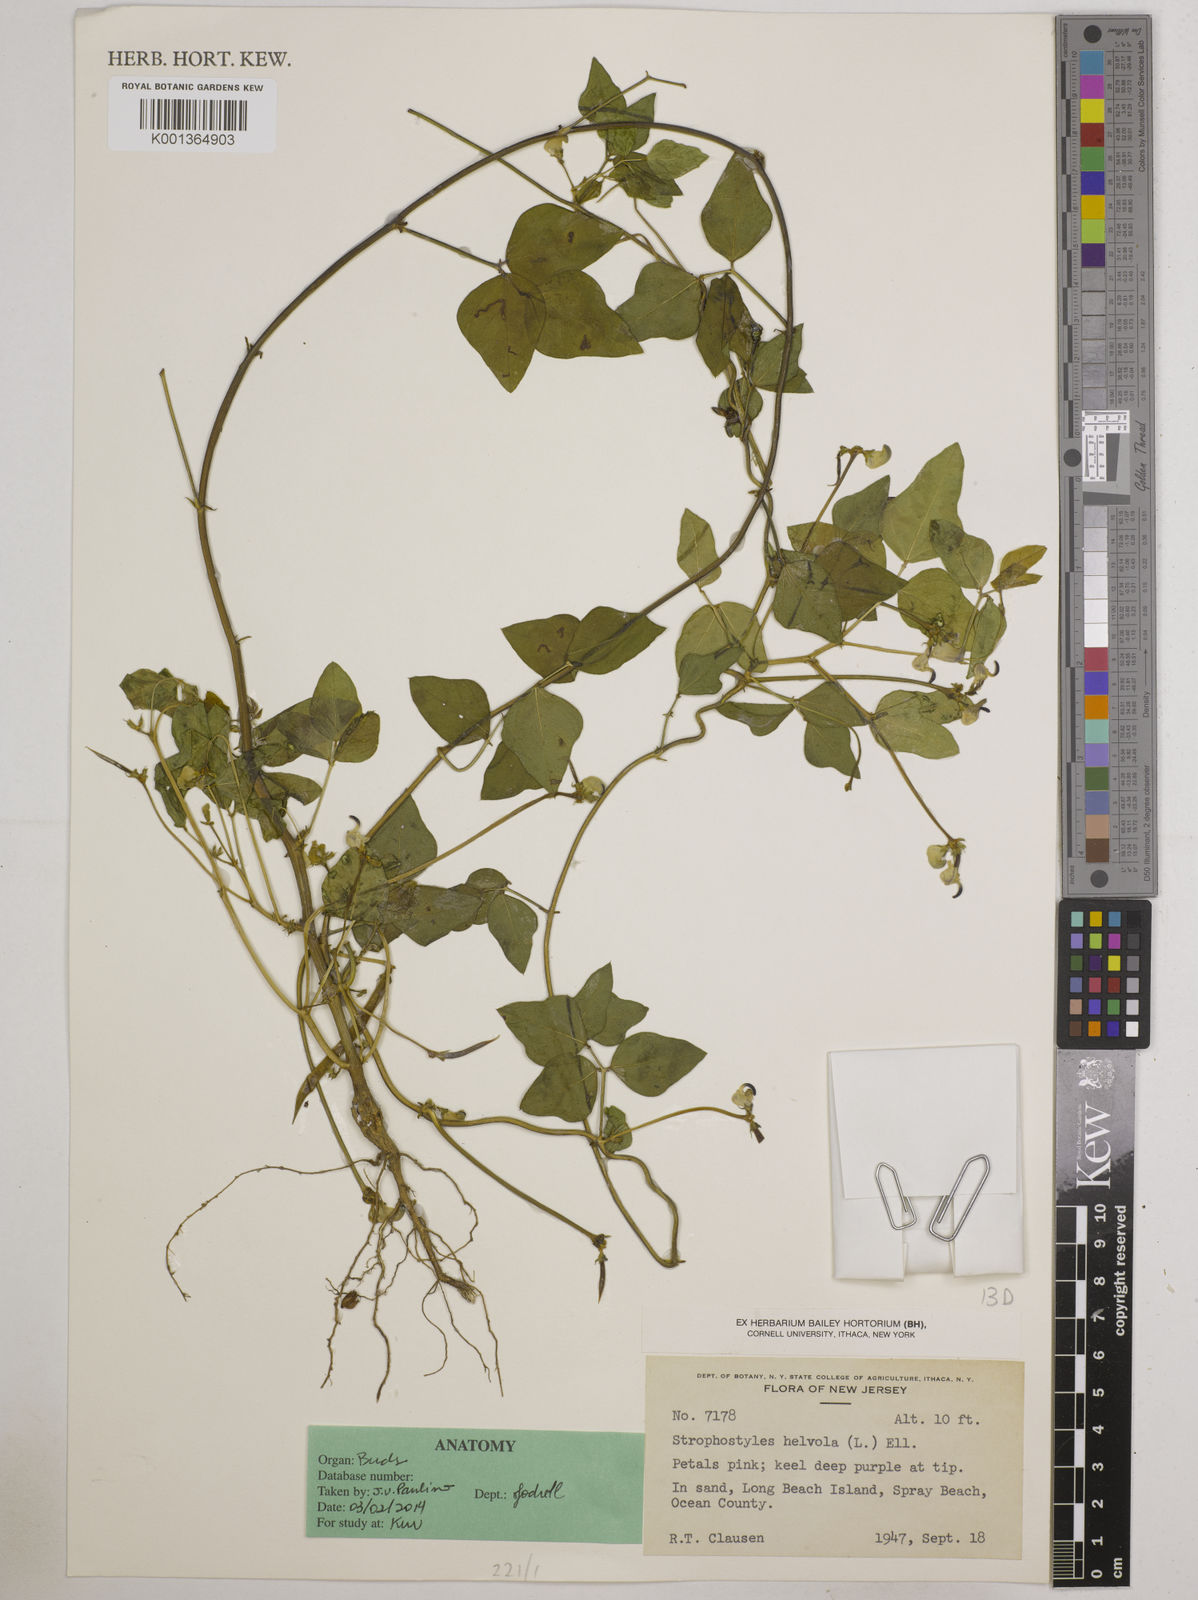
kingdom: Plantae
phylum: Tracheophyta
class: Magnoliopsida
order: Fabales
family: Fabaceae
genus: Strophostyles
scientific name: Strophostyles
